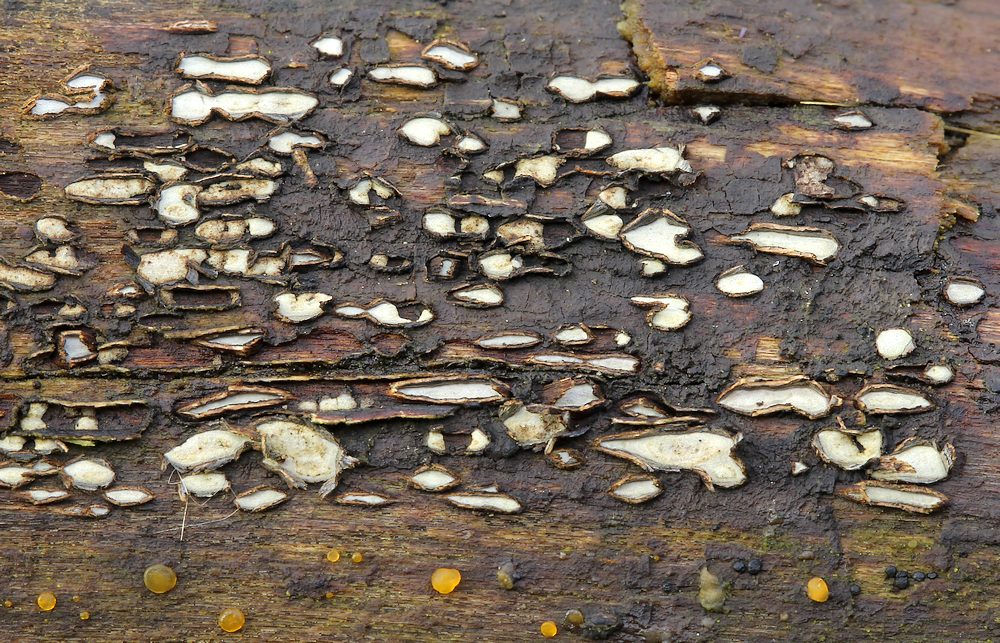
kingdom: Fungi
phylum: Ascomycota
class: Leotiomycetes
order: Chaetomellales
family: Marthamycetaceae
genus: Propolis
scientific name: Propolis farinosa
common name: almindelig vedsprængerskive
